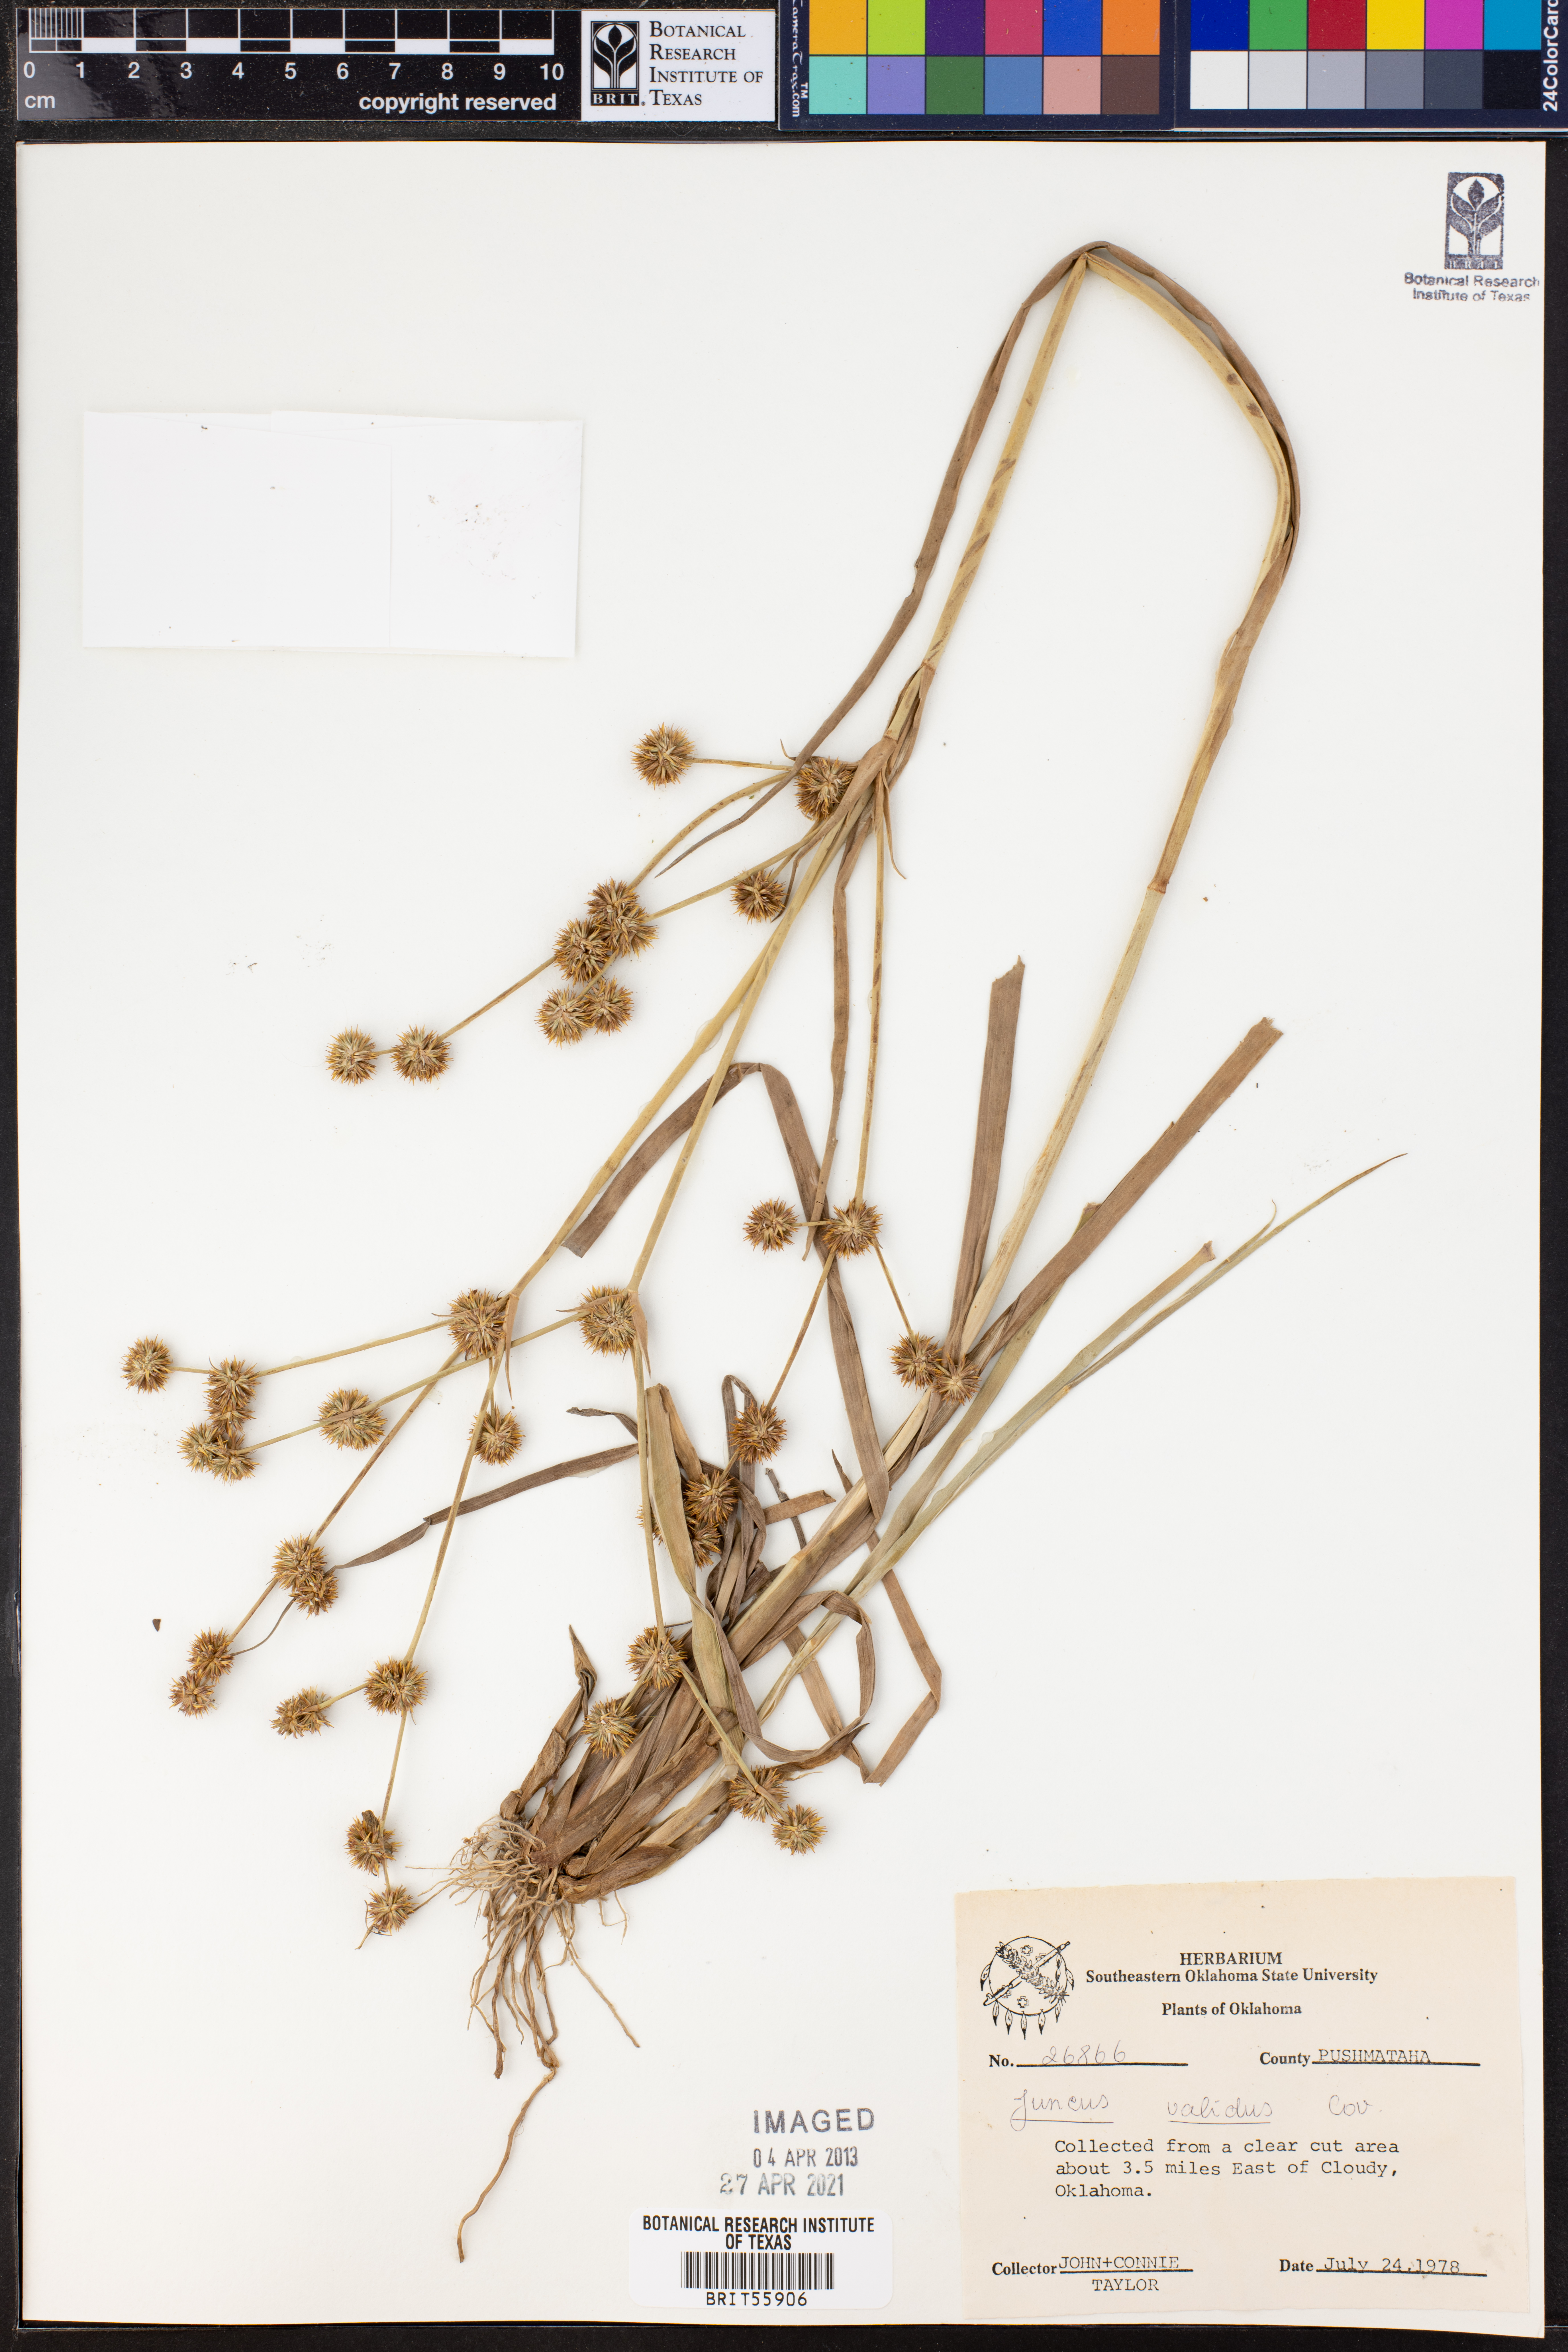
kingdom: Plantae
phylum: Tracheophyta
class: Liliopsida
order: Poales
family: Juncaceae
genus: Juncus
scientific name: Juncus validus
